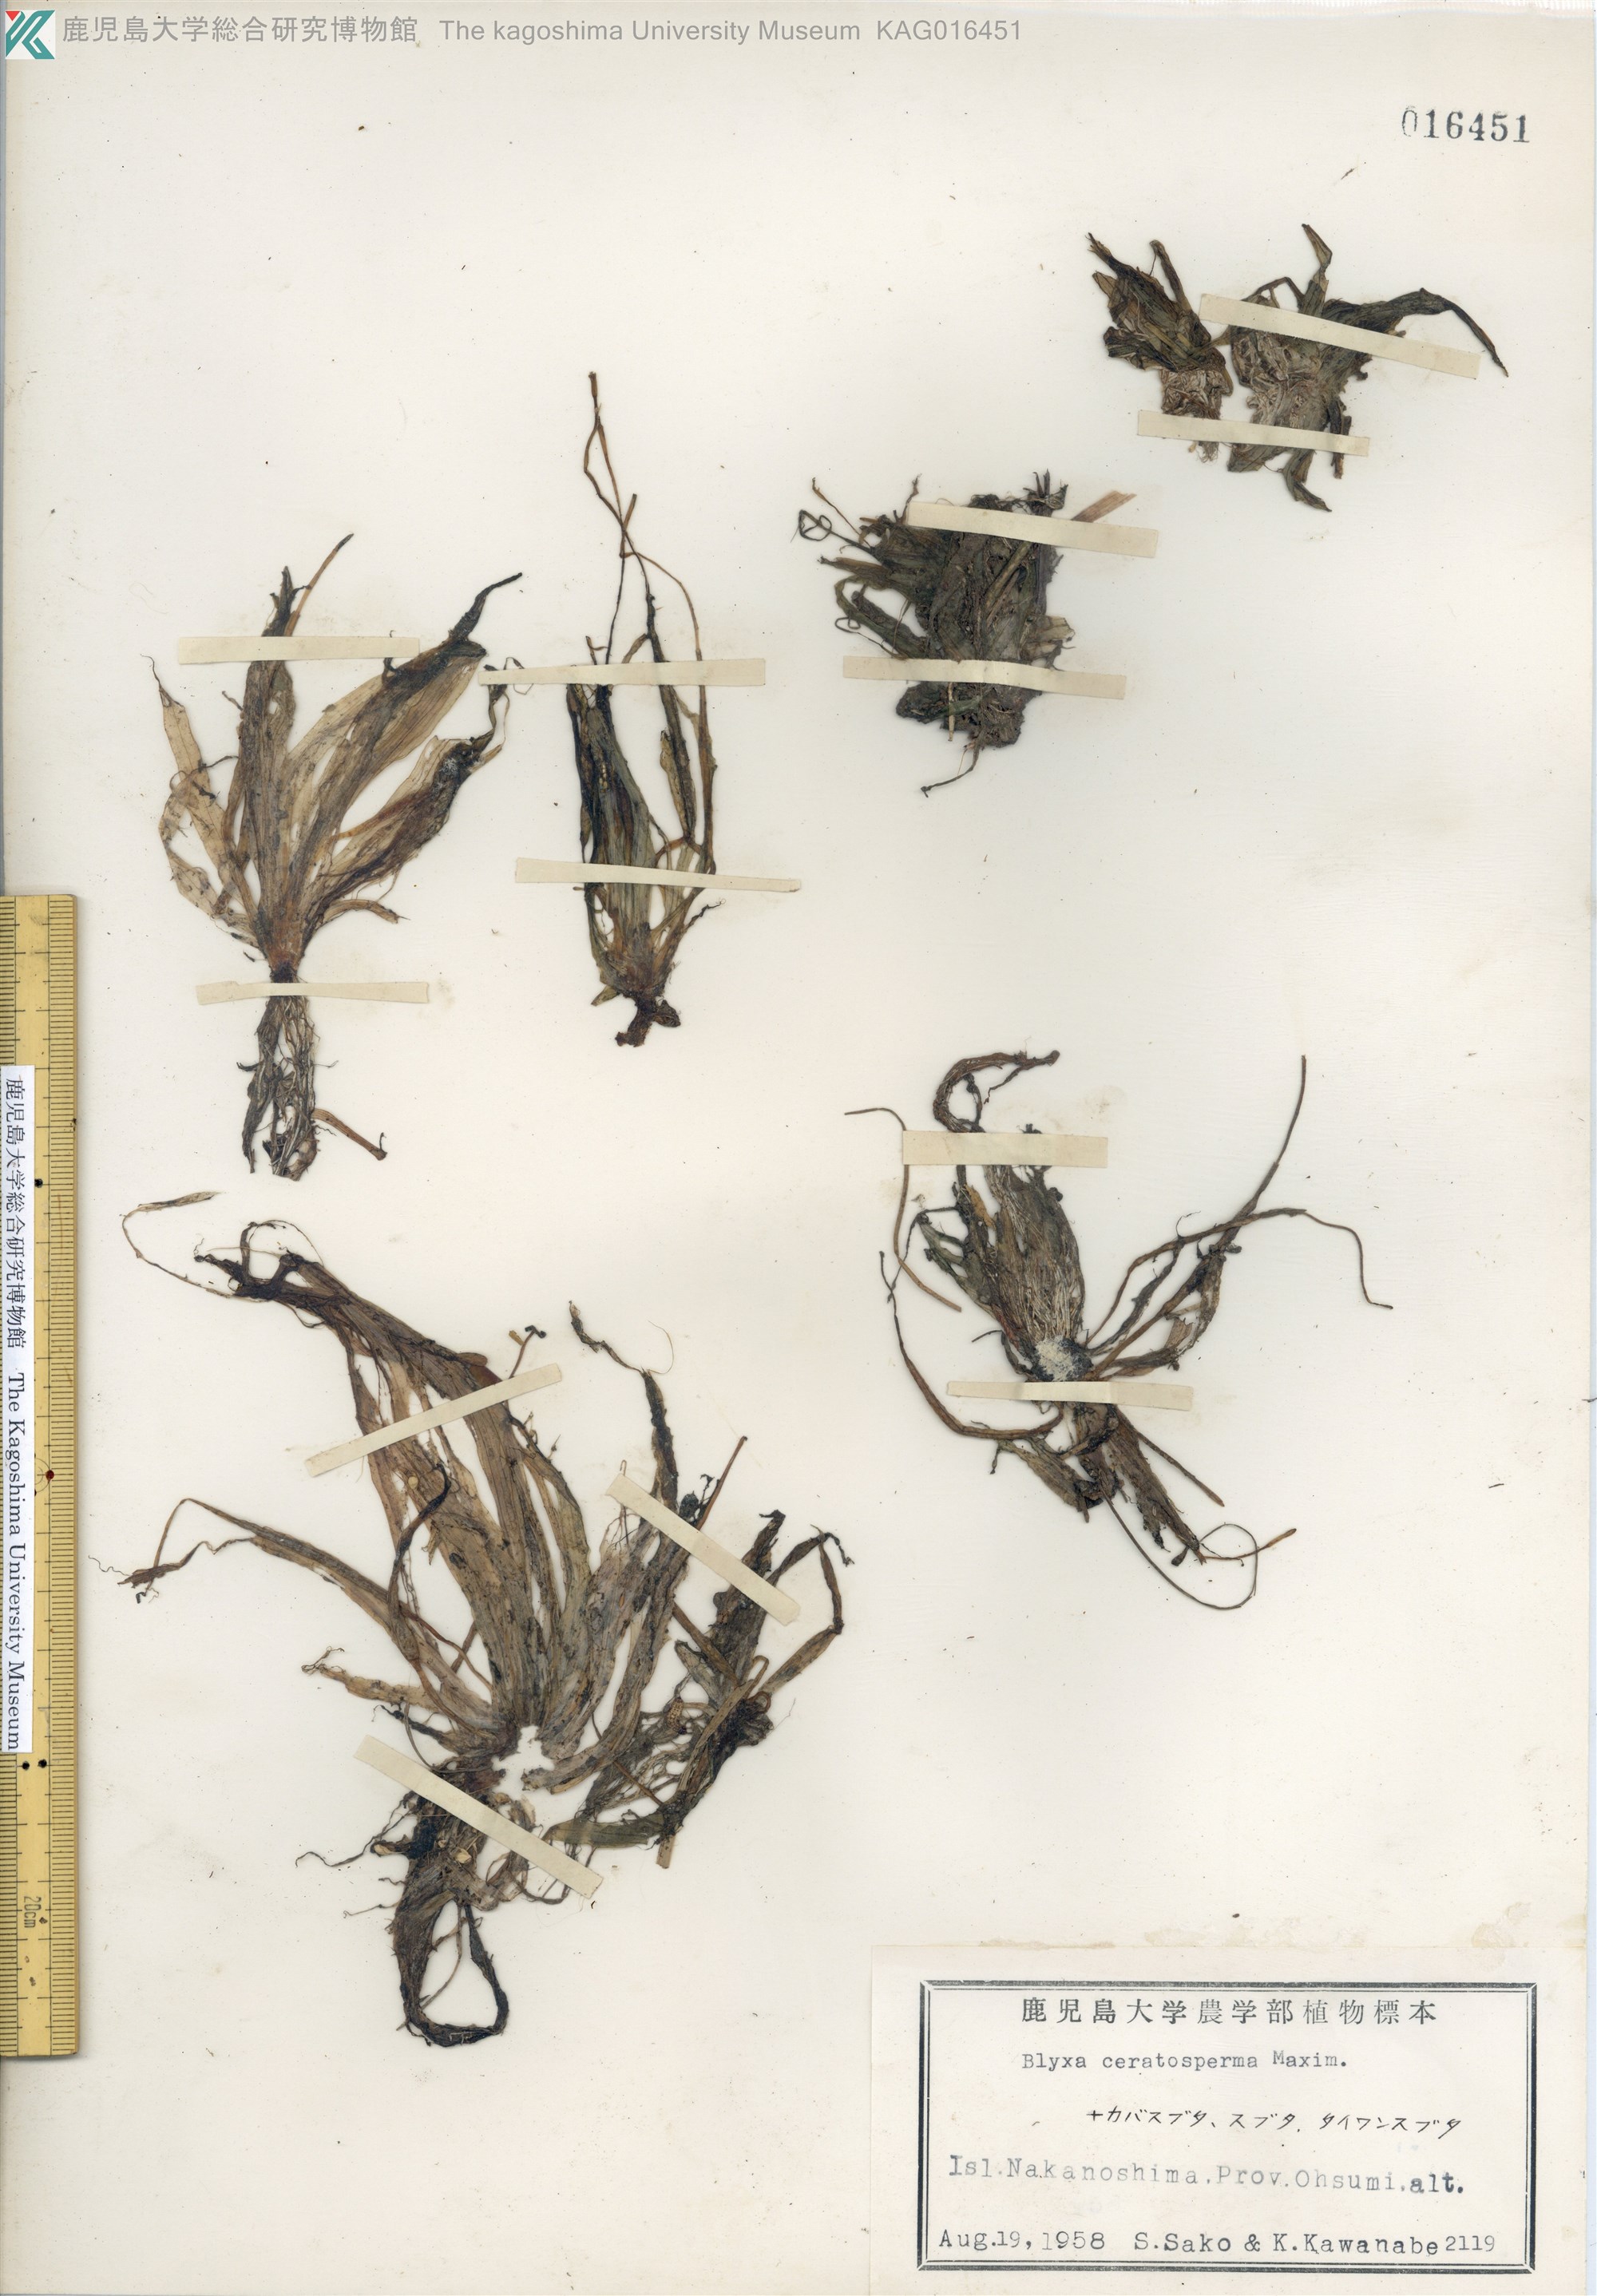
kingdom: Plantae
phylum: Tracheophyta
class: Liliopsida
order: Alismatales
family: Hydrocharitaceae
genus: Blyxa
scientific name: Blyxa echinosperma
